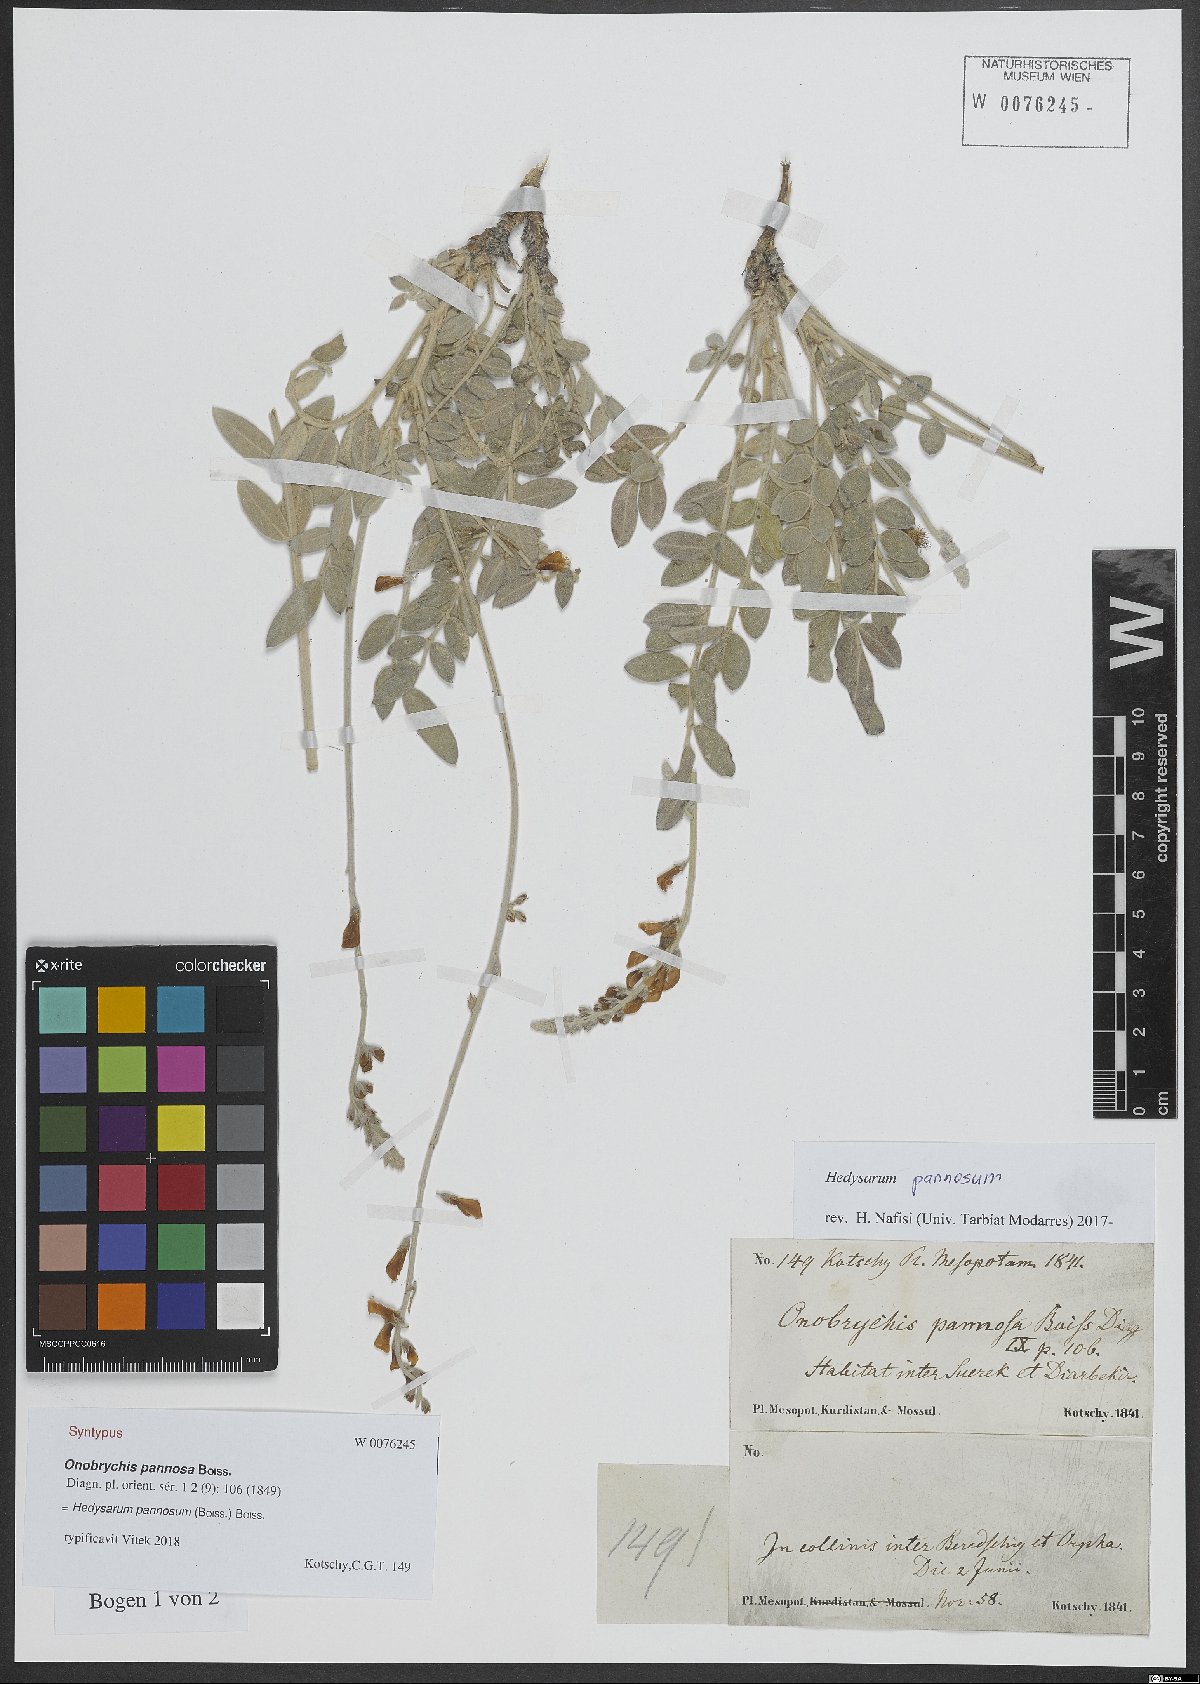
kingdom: Plantae
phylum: Tracheophyta
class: Magnoliopsida
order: Fabales
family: Fabaceae
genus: Hedysarum
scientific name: Hedysarum pannosum
